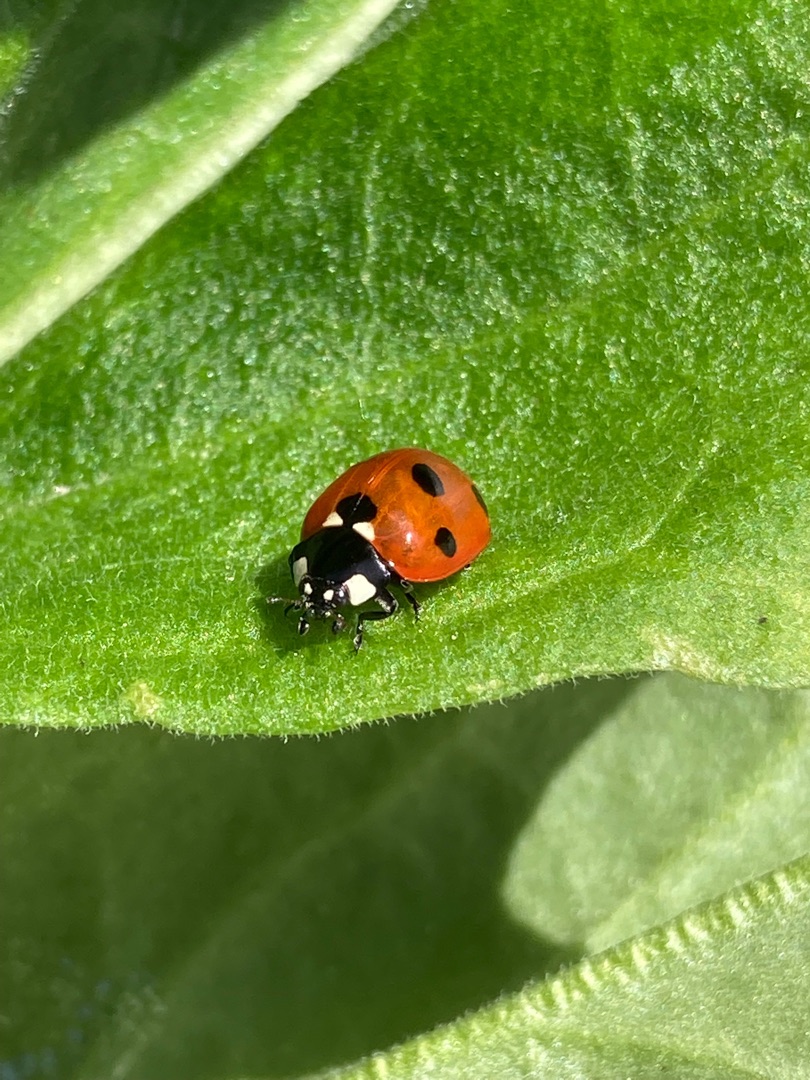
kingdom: Animalia
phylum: Arthropoda
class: Insecta
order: Coleoptera
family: Coccinellidae
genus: Coccinella
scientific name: Coccinella septempunctata
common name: Syvplettet mariehøne
